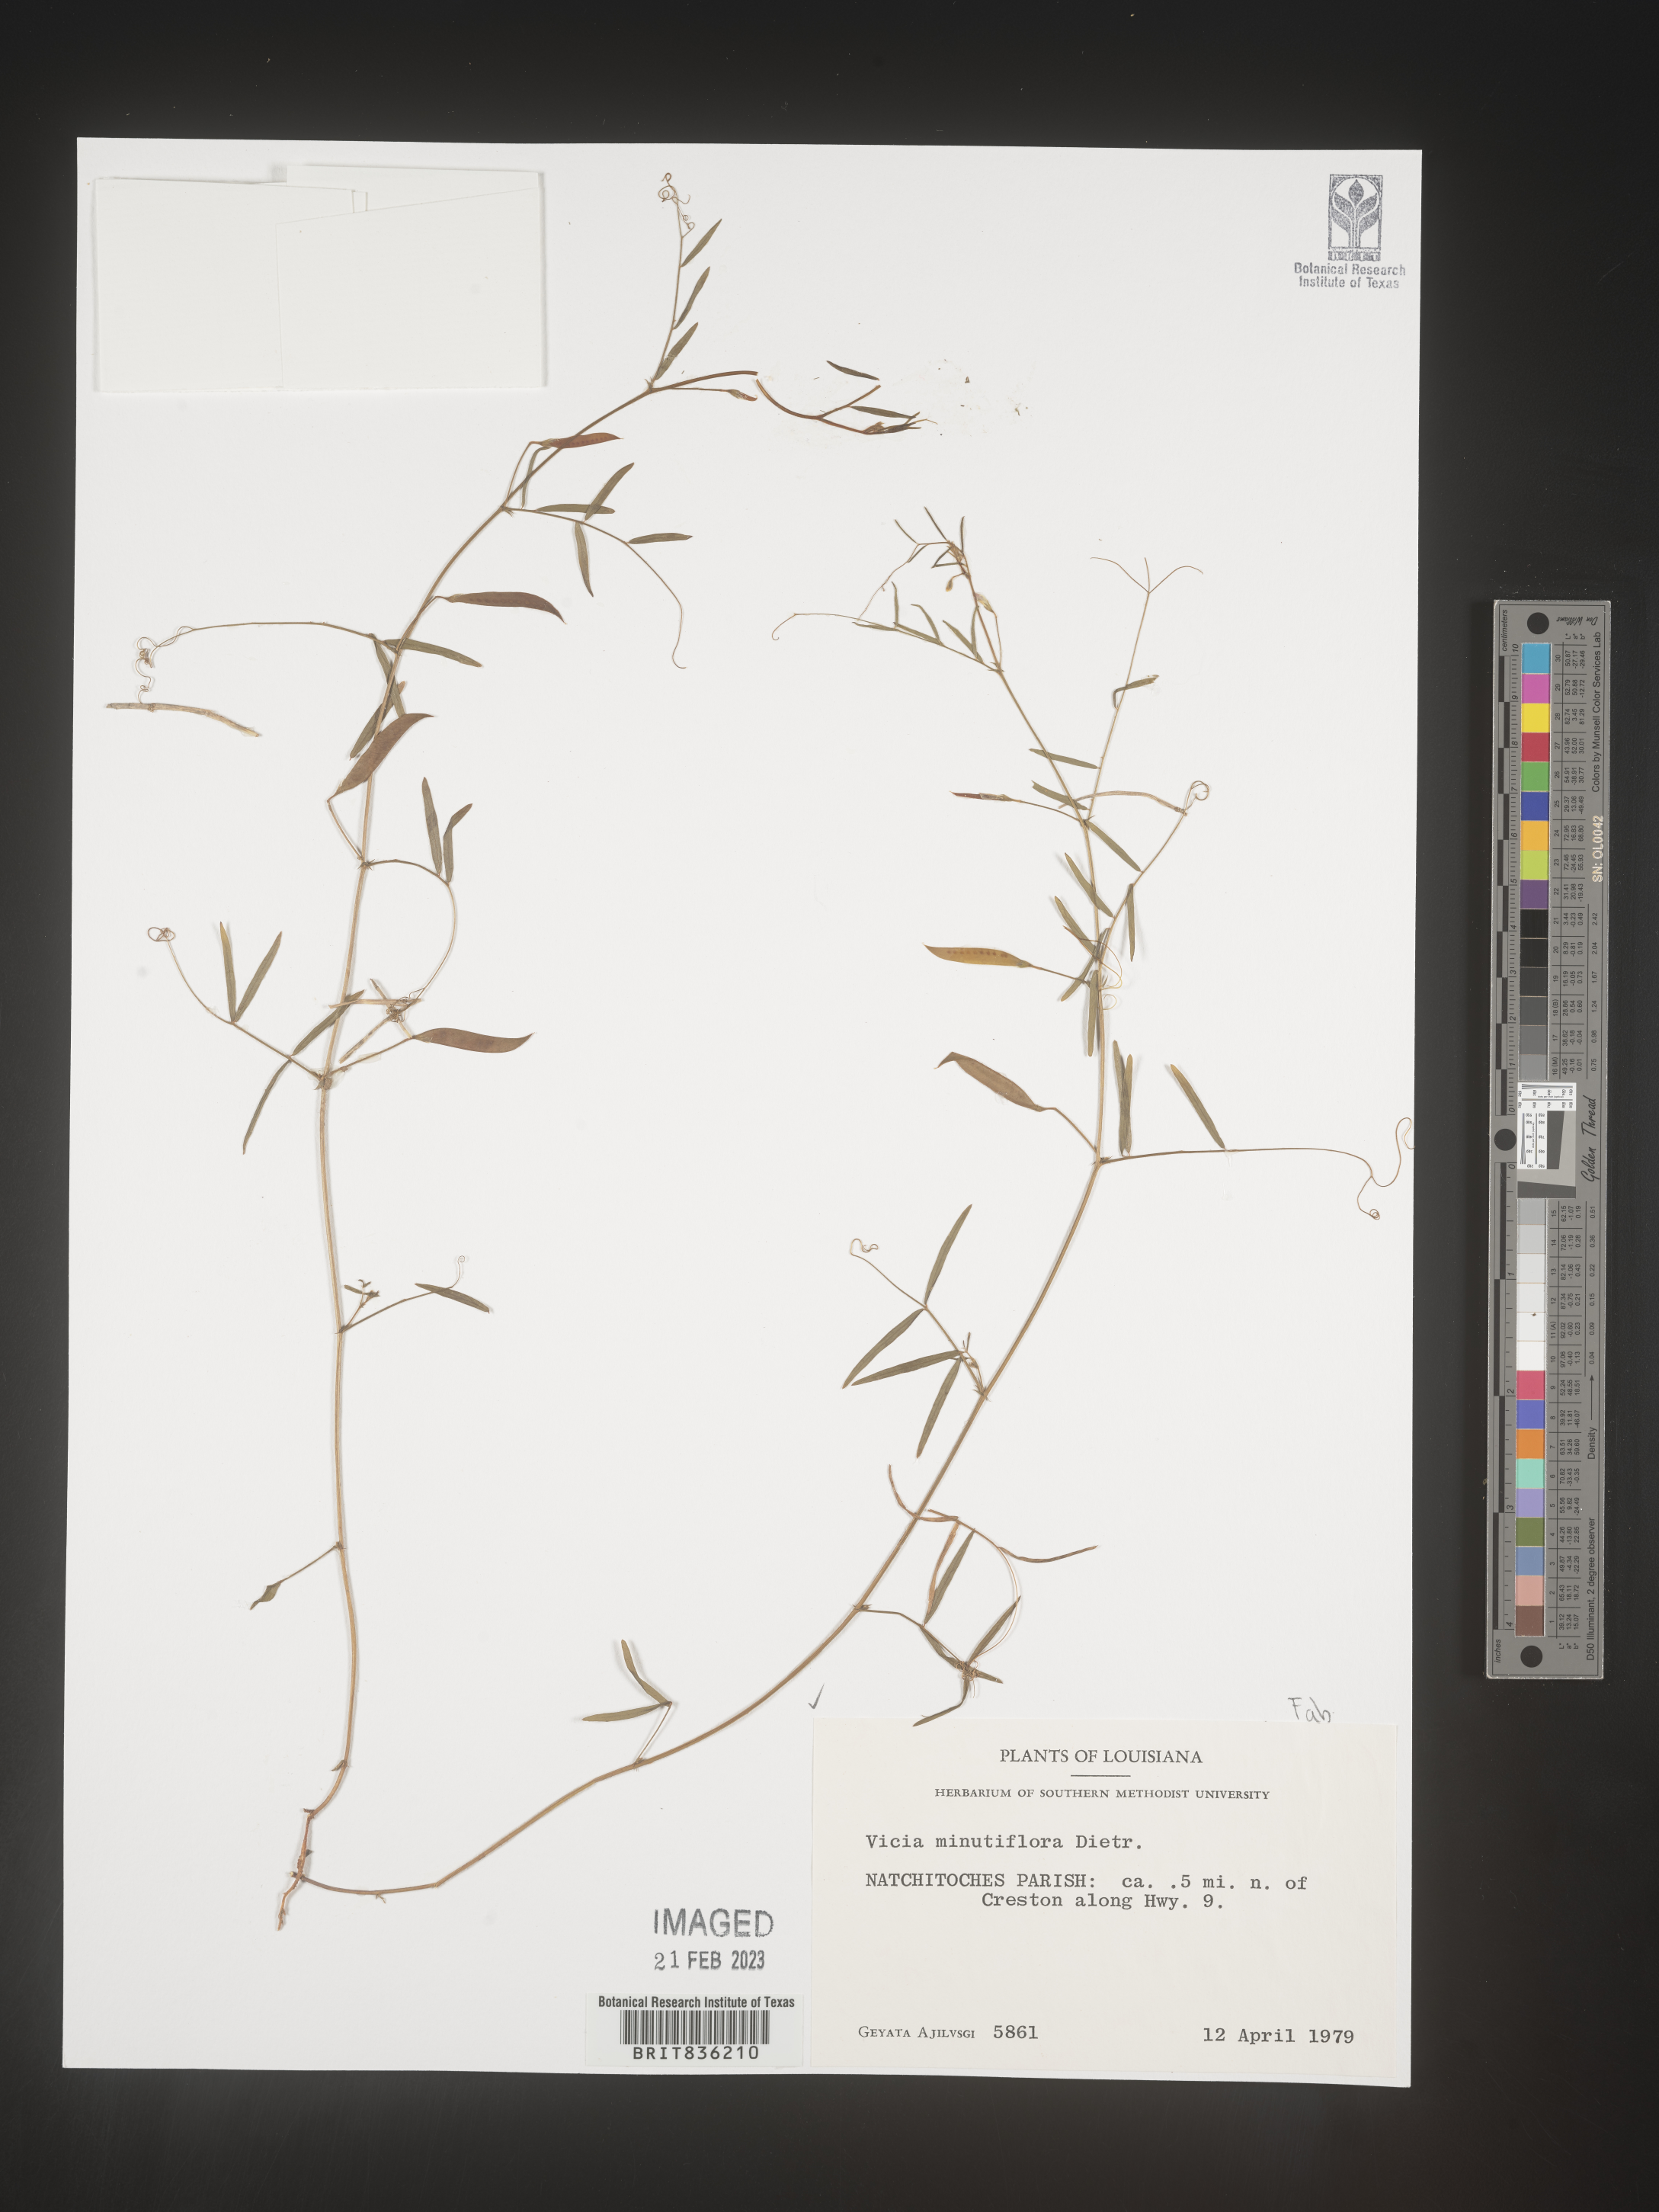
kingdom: Plantae
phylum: Tracheophyta
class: Magnoliopsida
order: Fabales
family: Fabaceae
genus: Vicia
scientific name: Vicia minutiflora
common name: Pygmy-flower vetch
